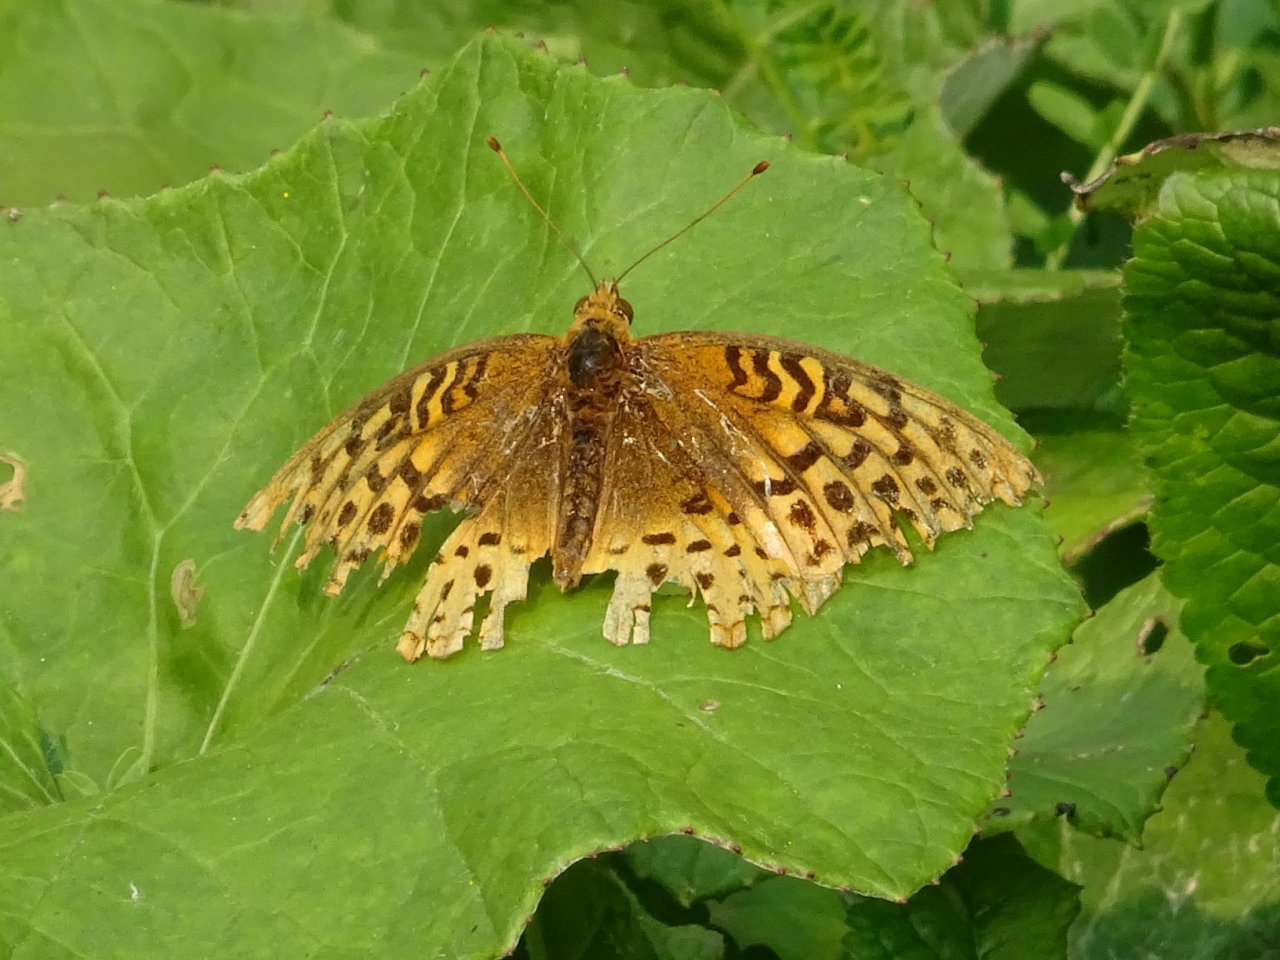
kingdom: Animalia
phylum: Arthropoda
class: Insecta
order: Lepidoptera
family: Nymphalidae
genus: Speyeria
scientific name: Speyeria cybele
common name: Great Spangled Fritillary
